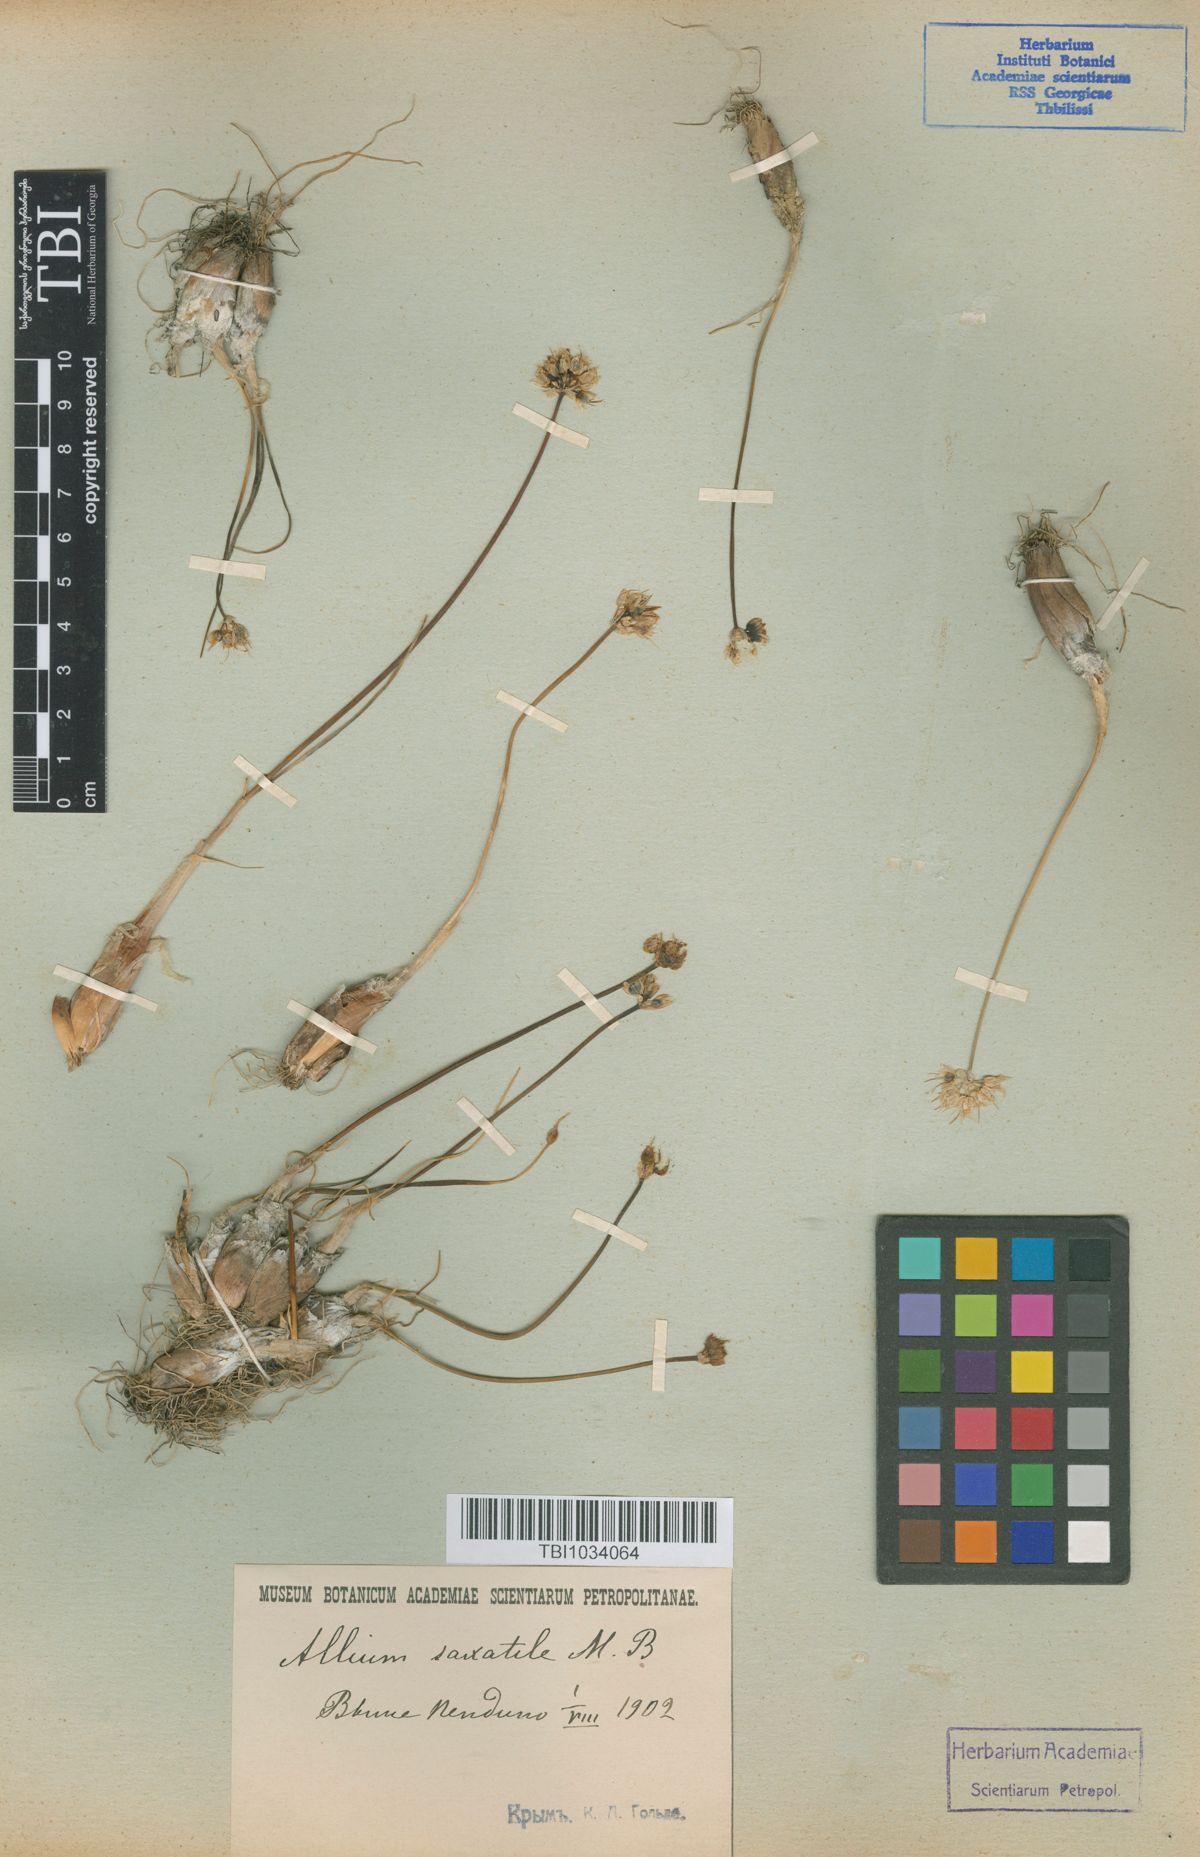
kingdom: Plantae
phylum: Tracheophyta
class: Liliopsida
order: Asparagales
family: Amaryllidaceae
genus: Allium
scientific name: Allium saxatile
